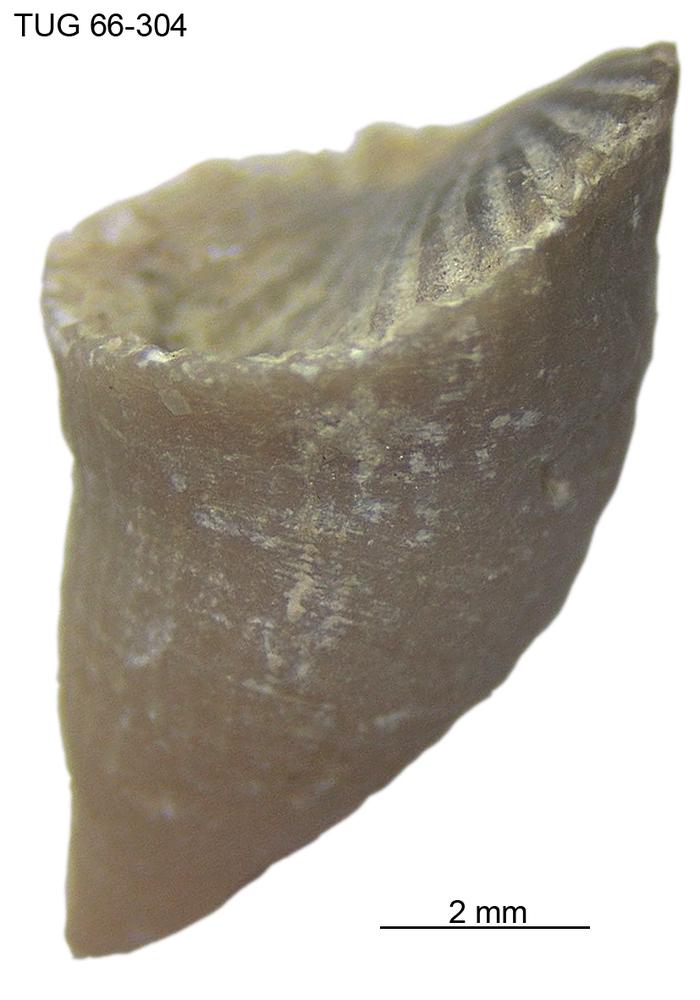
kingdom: Animalia
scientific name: Animalia
